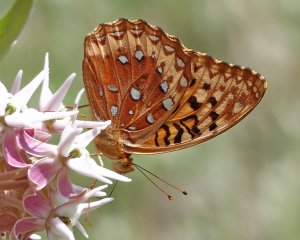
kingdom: Animalia
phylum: Arthropoda
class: Insecta
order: Lepidoptera
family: Nymphalidae
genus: Speyeria
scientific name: Speyeria cybele
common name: Great Spangled Fritillary
